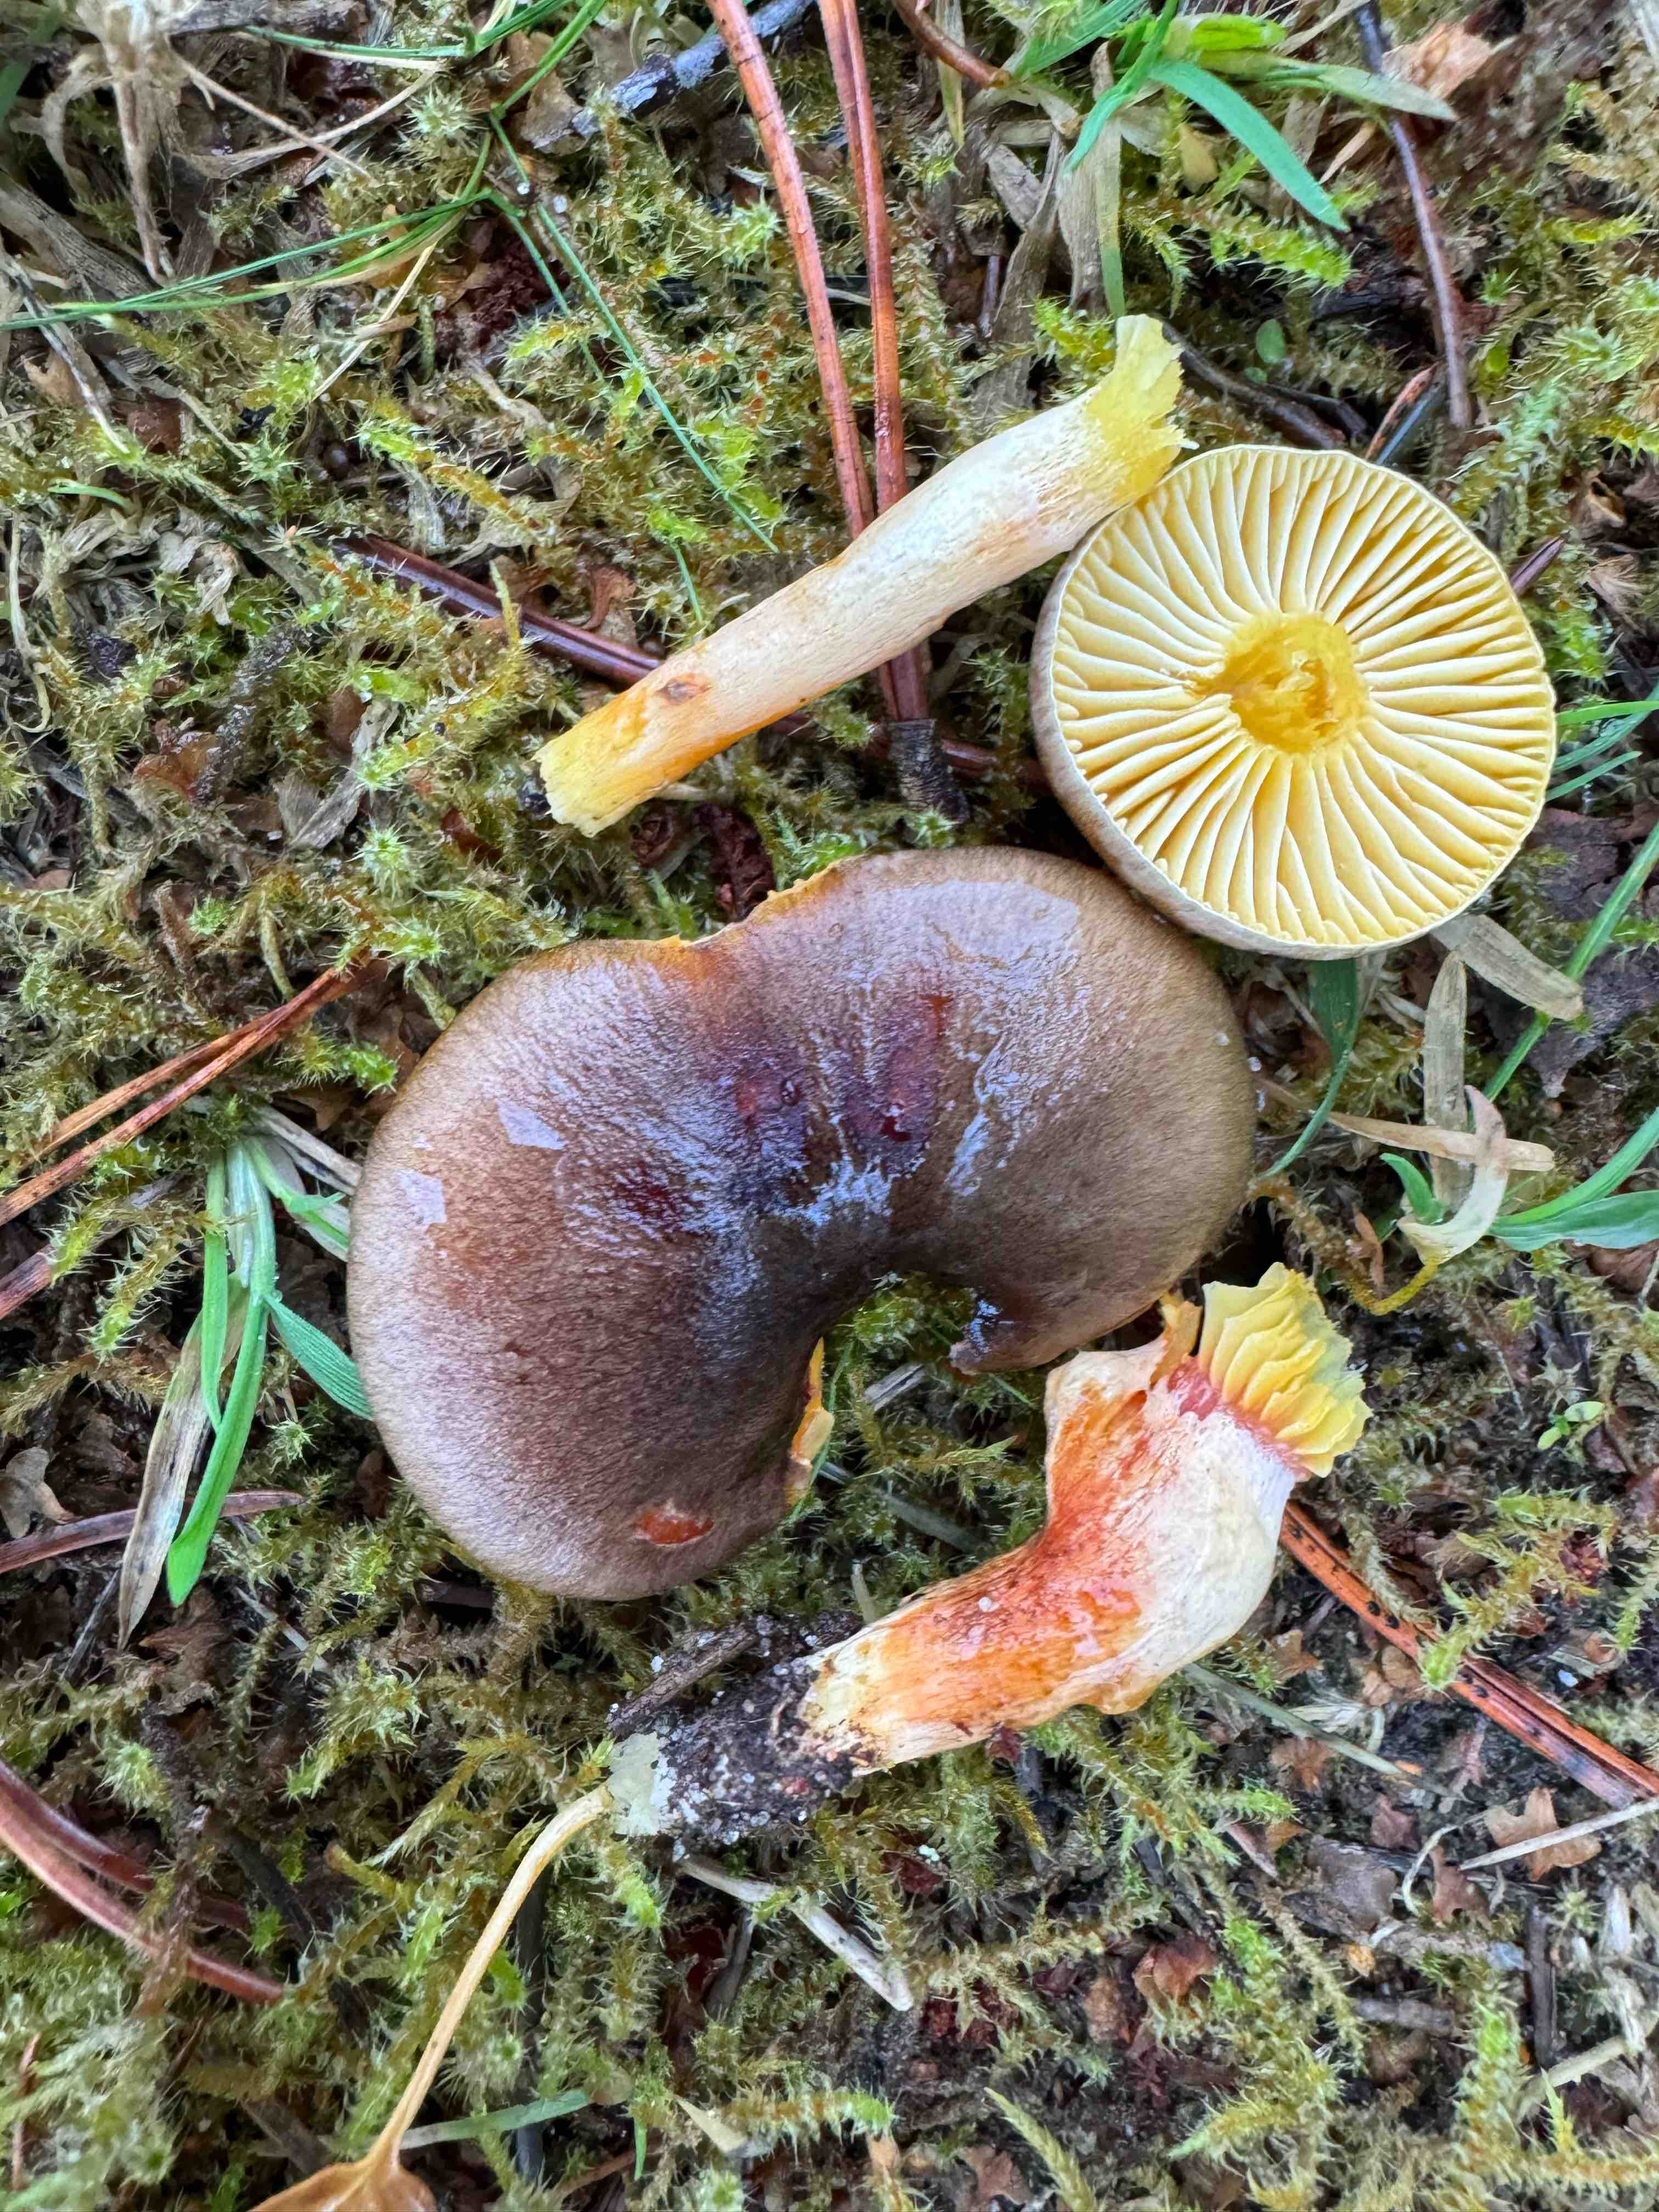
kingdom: Fungi
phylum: Basidiomycota
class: Agaricomycetes
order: Agaricales
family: Hygrophoraceae
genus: Hygrophorus
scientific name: Hygrophorus hypothejus
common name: frost-sneglehat
